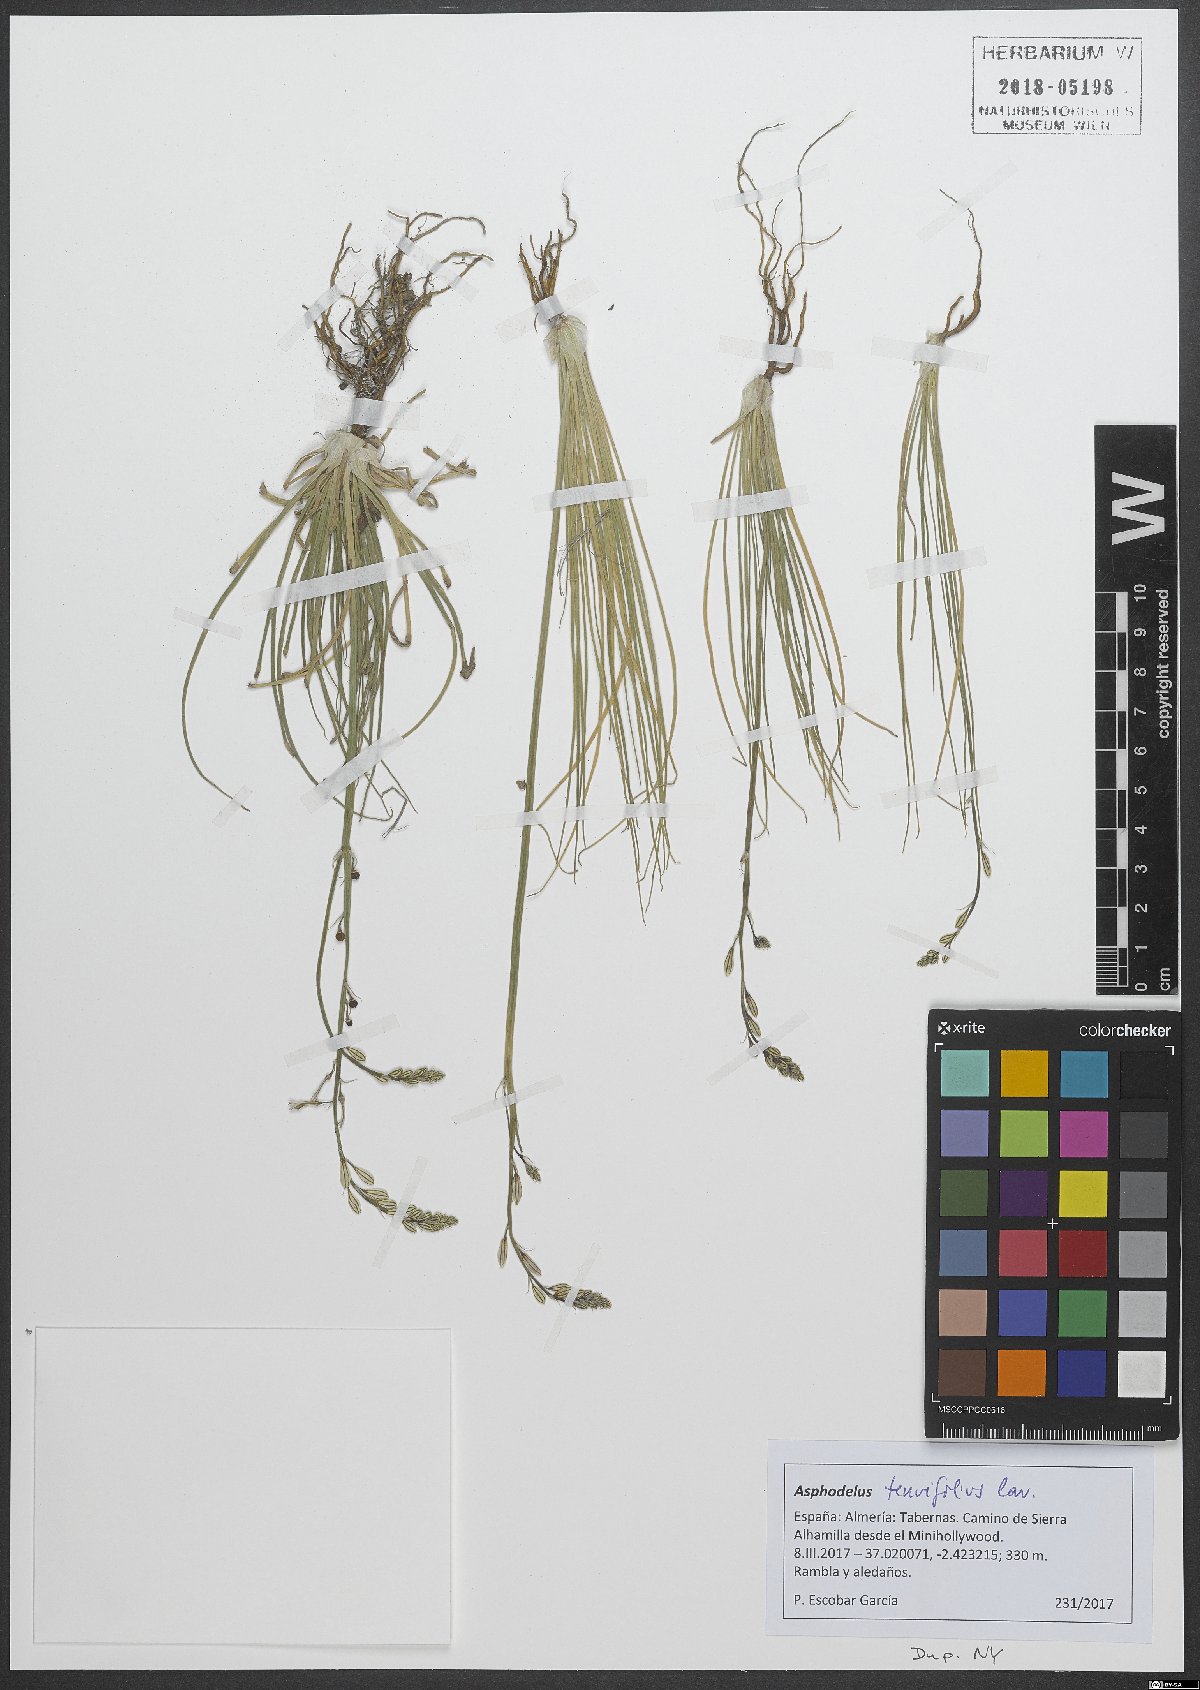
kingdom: Plantae
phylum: Tracheophyta
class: Liliopsida
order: Asparagales
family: Asphodelaceae
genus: Asphodelus
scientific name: Asphodelus tenuifolius
